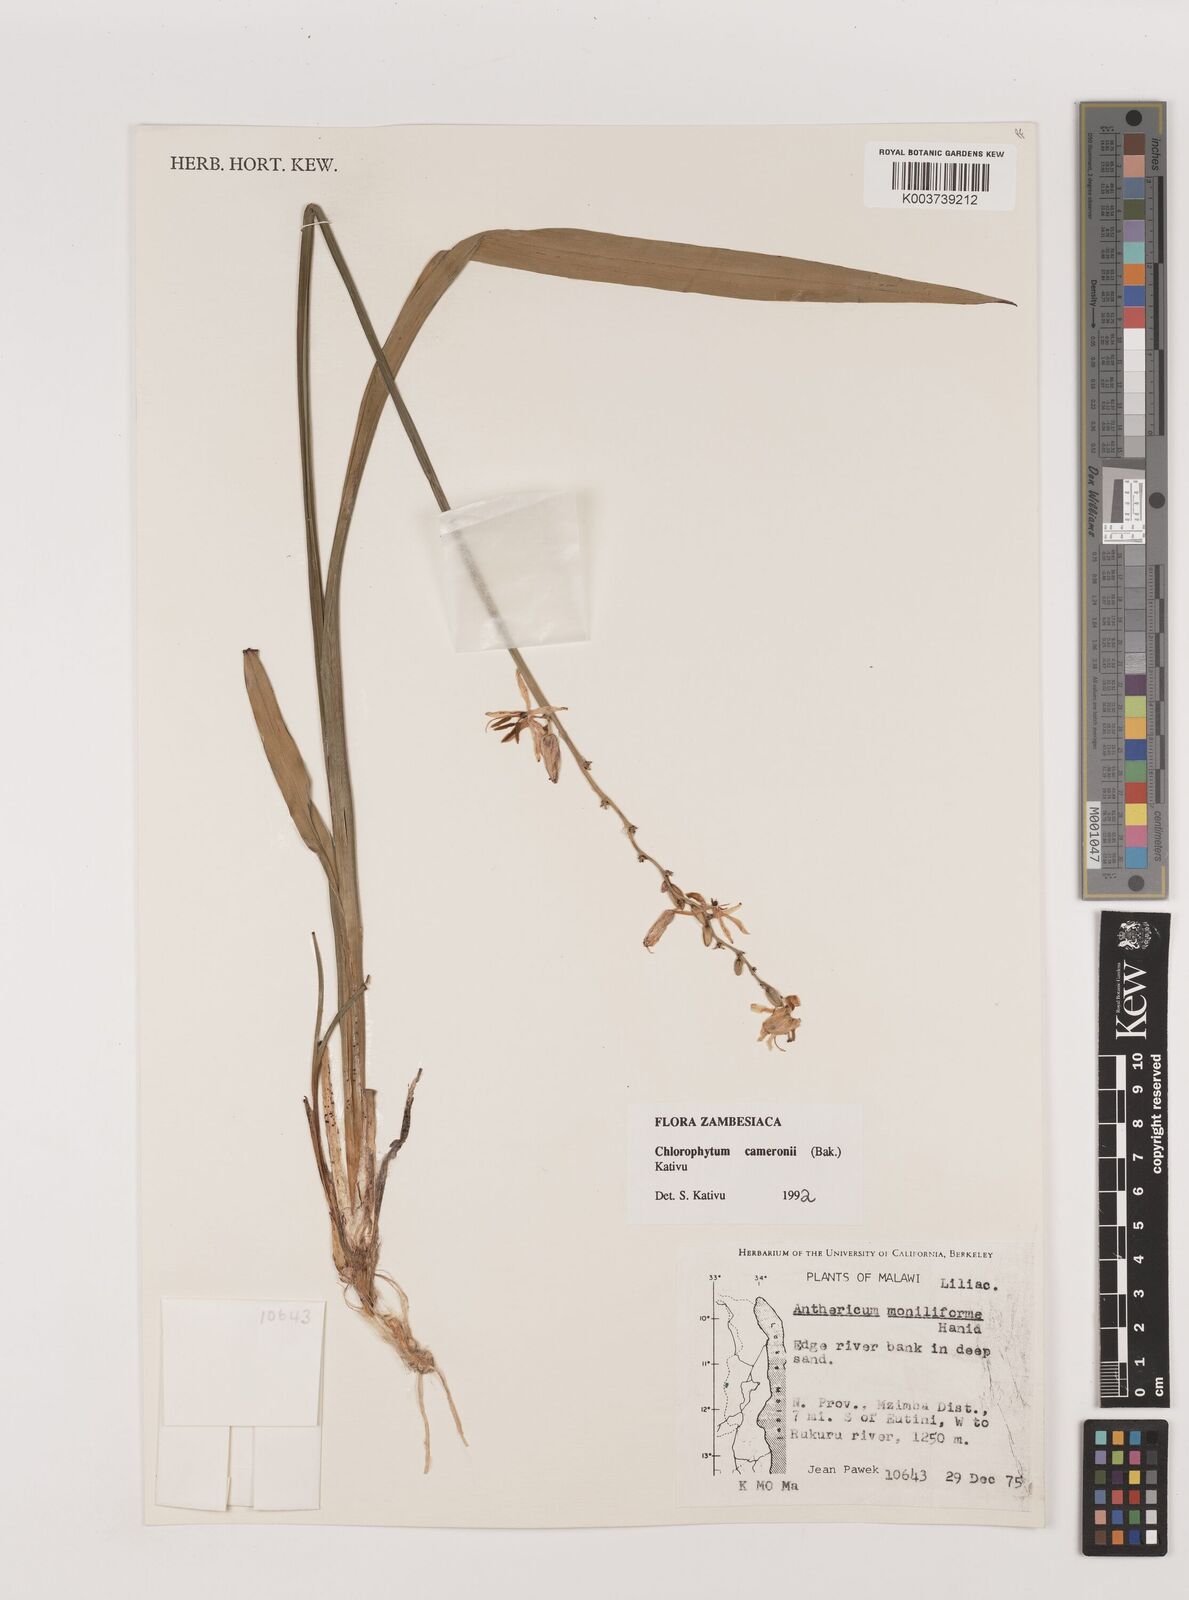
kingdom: Plantae
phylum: Tracheophyta
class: Liliopsida
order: Asparagales
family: Asparagaceae
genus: Chlorophytum
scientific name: Chlorophytum cameronii
